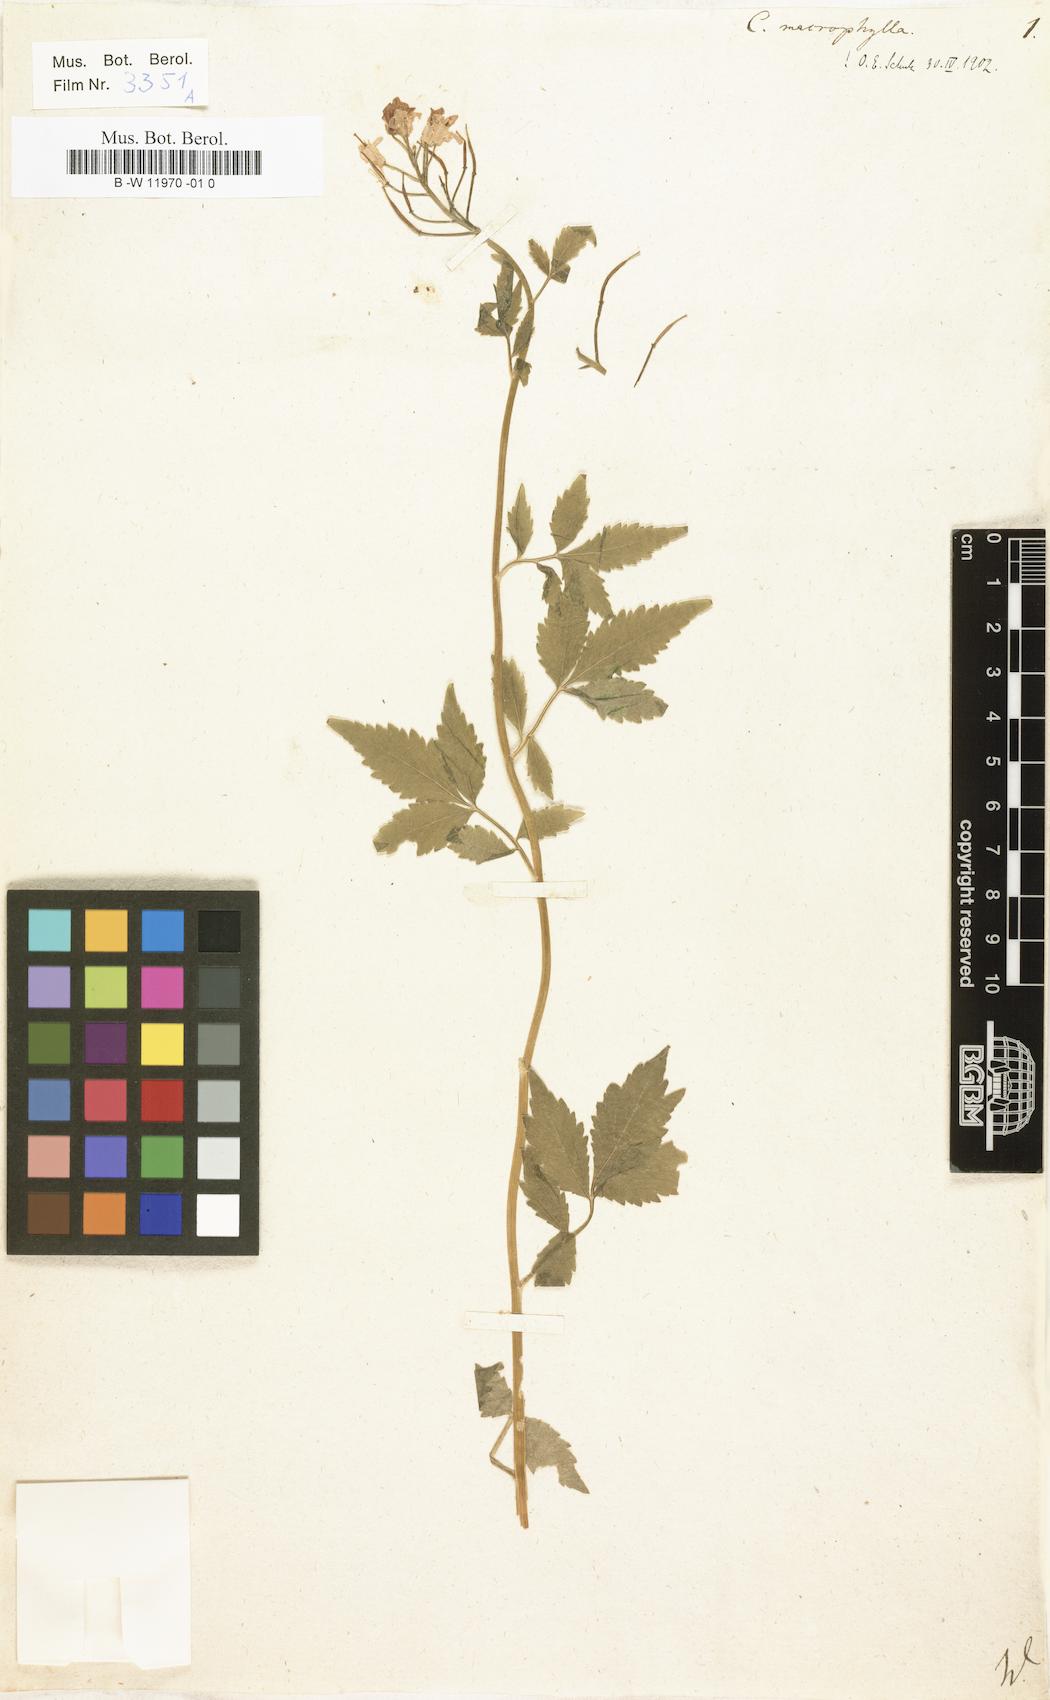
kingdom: Plantae
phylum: Tracheophyta
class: Magnoliopsida
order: Brassicales
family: Brassicaceae
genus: Cardamine
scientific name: Cardamine amara
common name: Large bitter-cress
